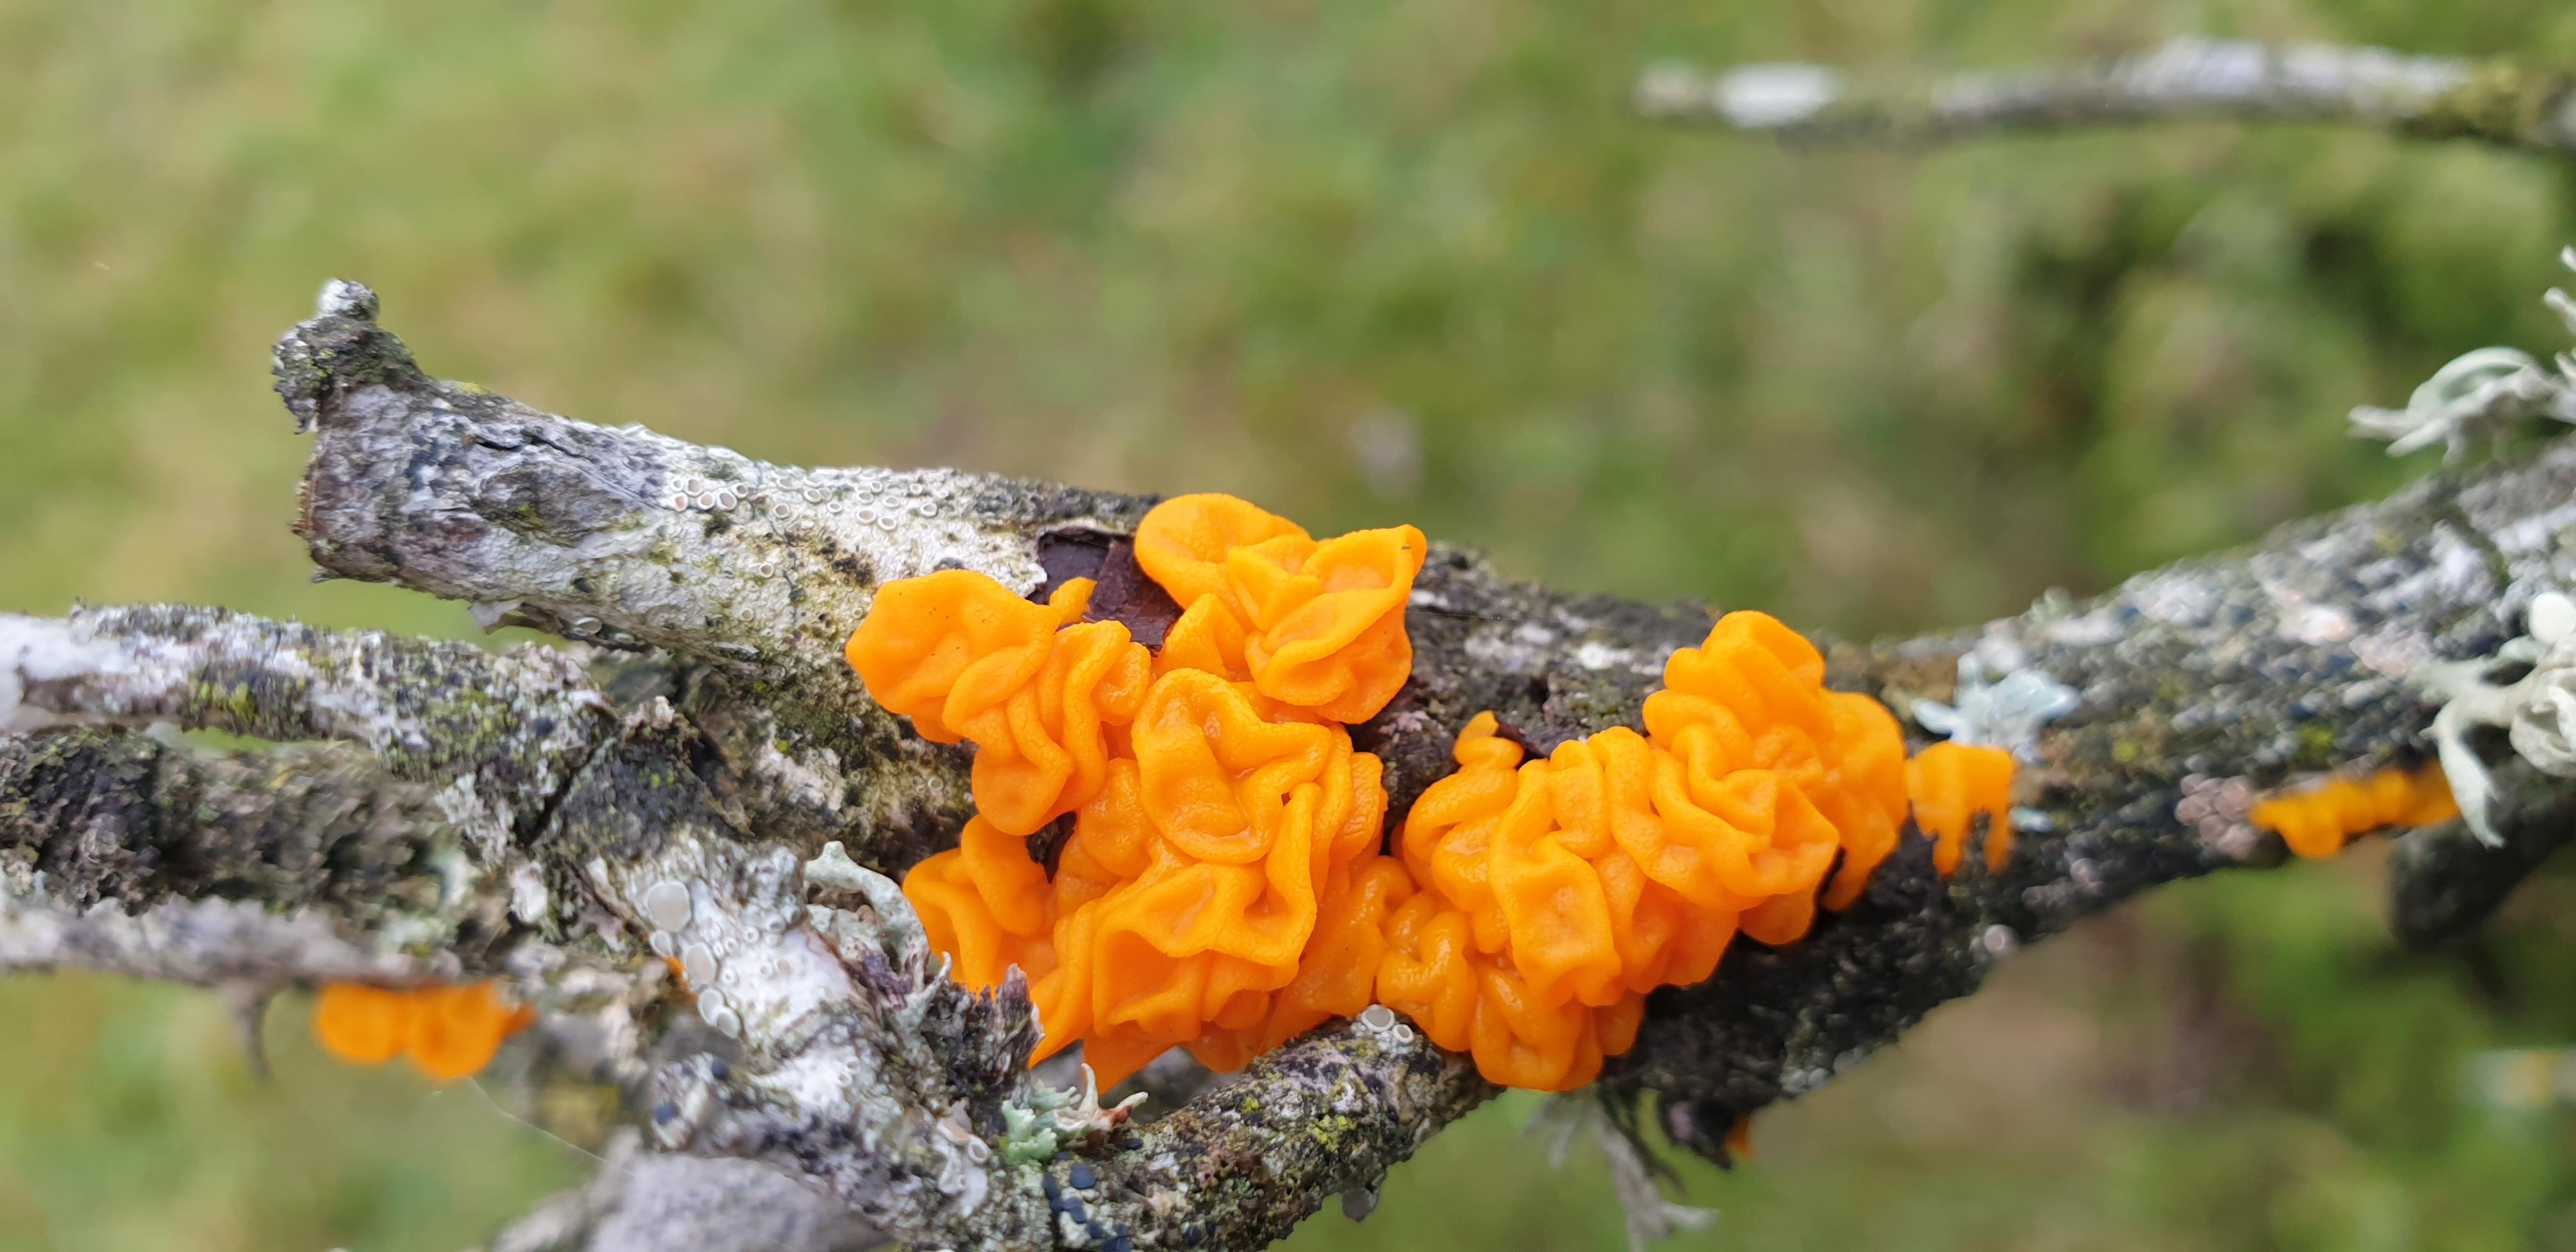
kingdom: Fungi
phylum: Basidiomycota
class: Tremellomycetes
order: Tremellales
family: Tremellaceae
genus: Tremella
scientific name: Tremella mesenterica
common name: gul bævresvamp
